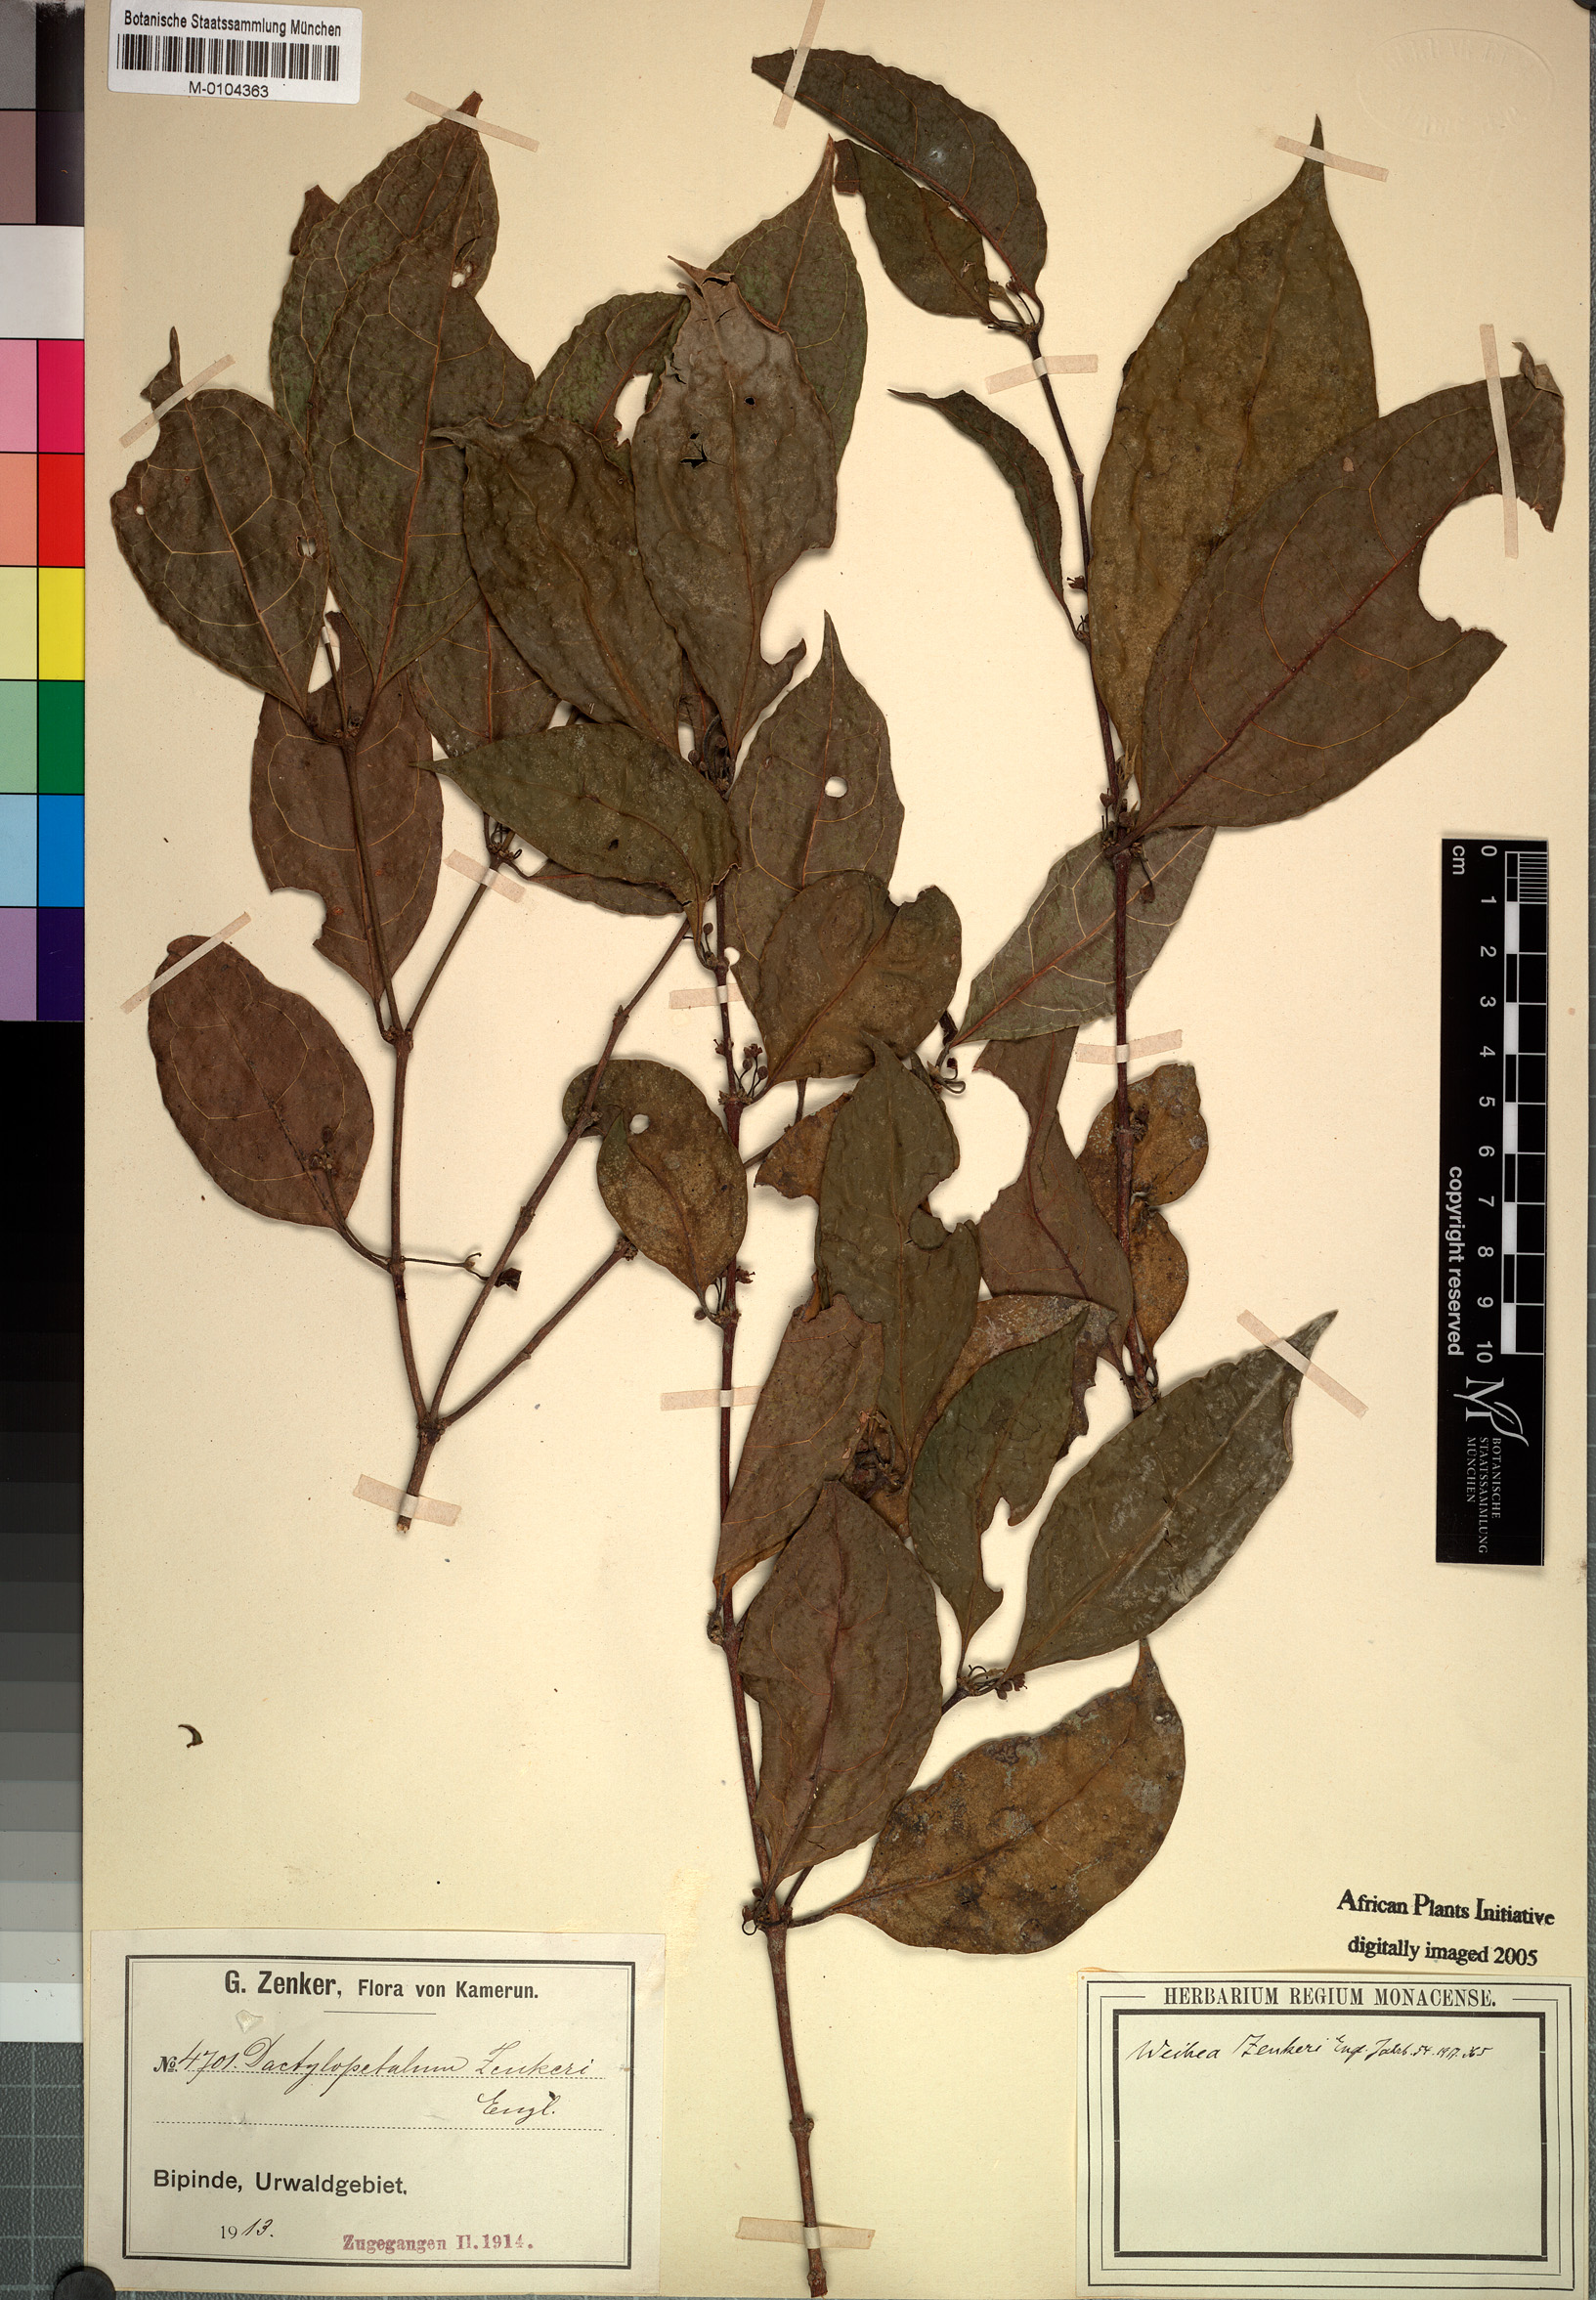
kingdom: Plantae
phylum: Tracheophyta
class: Magnoliopsida
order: Malpighiales
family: Rhizophoraceae
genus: Cassipourea
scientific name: Cassipourea zenkeri
